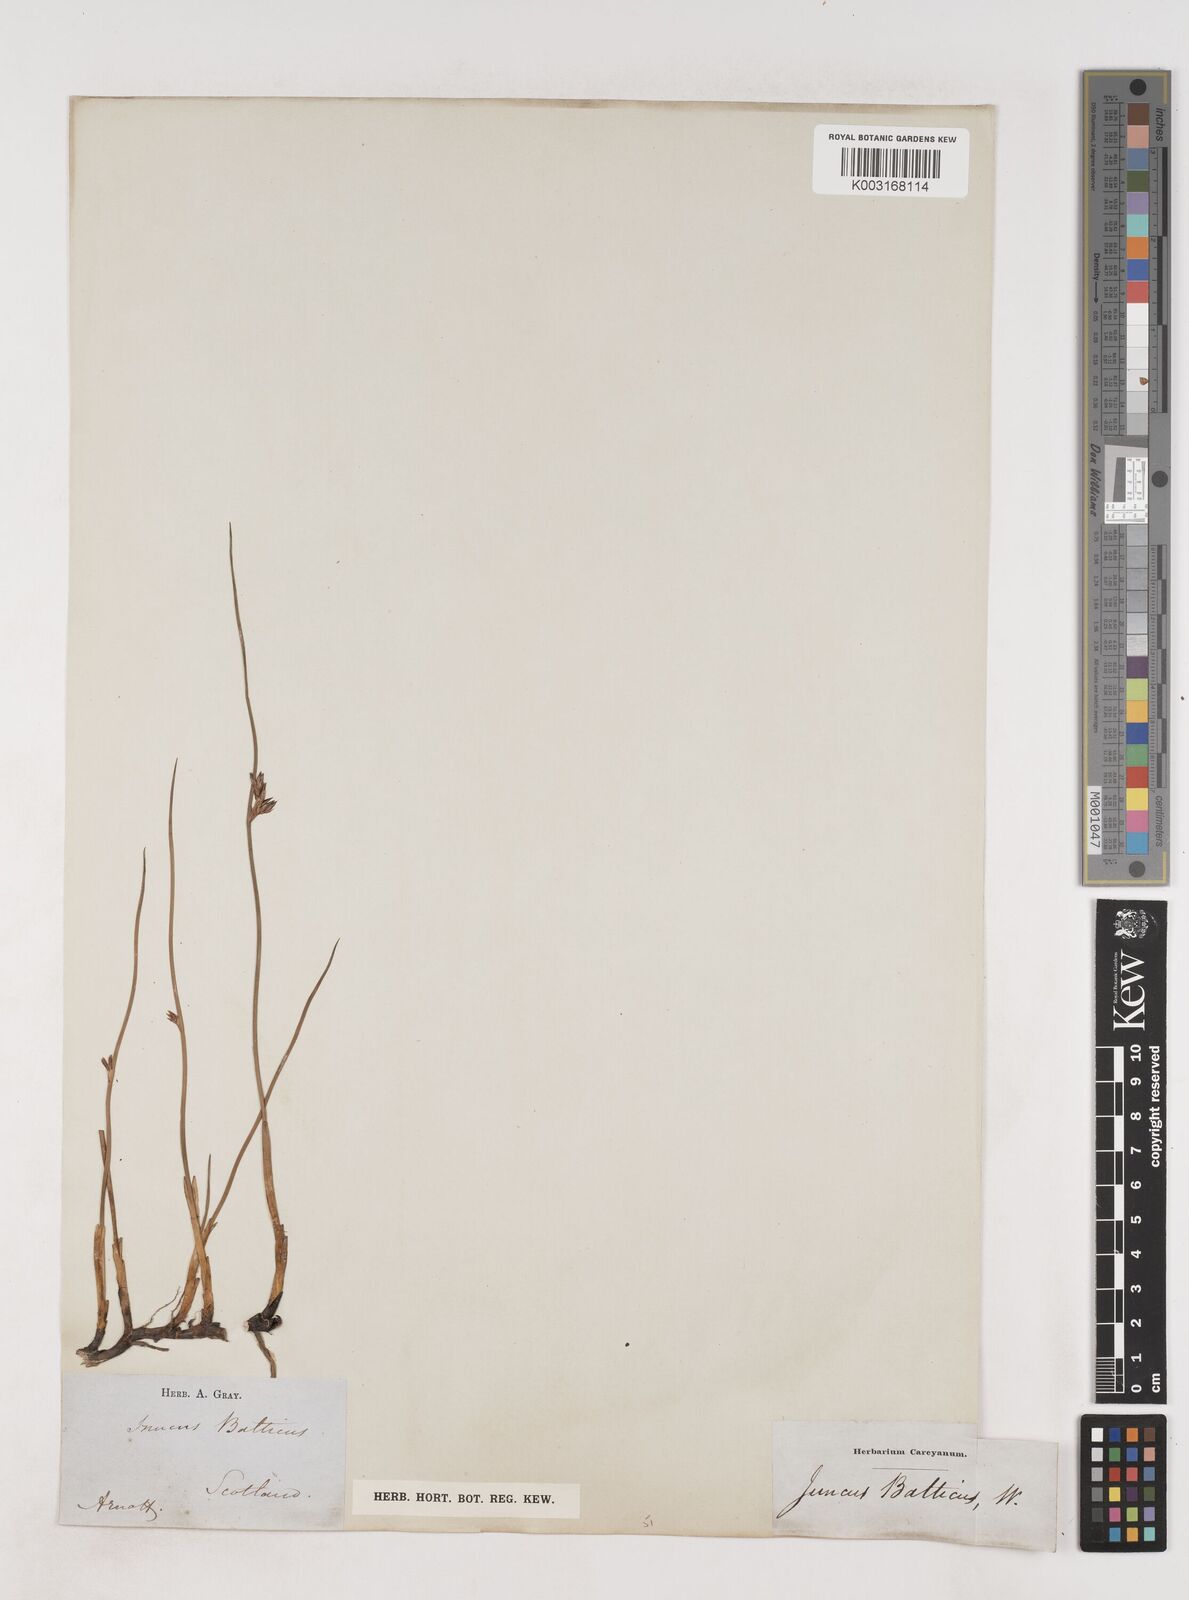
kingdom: Plantae
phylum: Tracheophyta
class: Liliopsida
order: Poales
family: Juncaceae
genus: Juncus
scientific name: Juncus balticus
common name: Baltic rush
